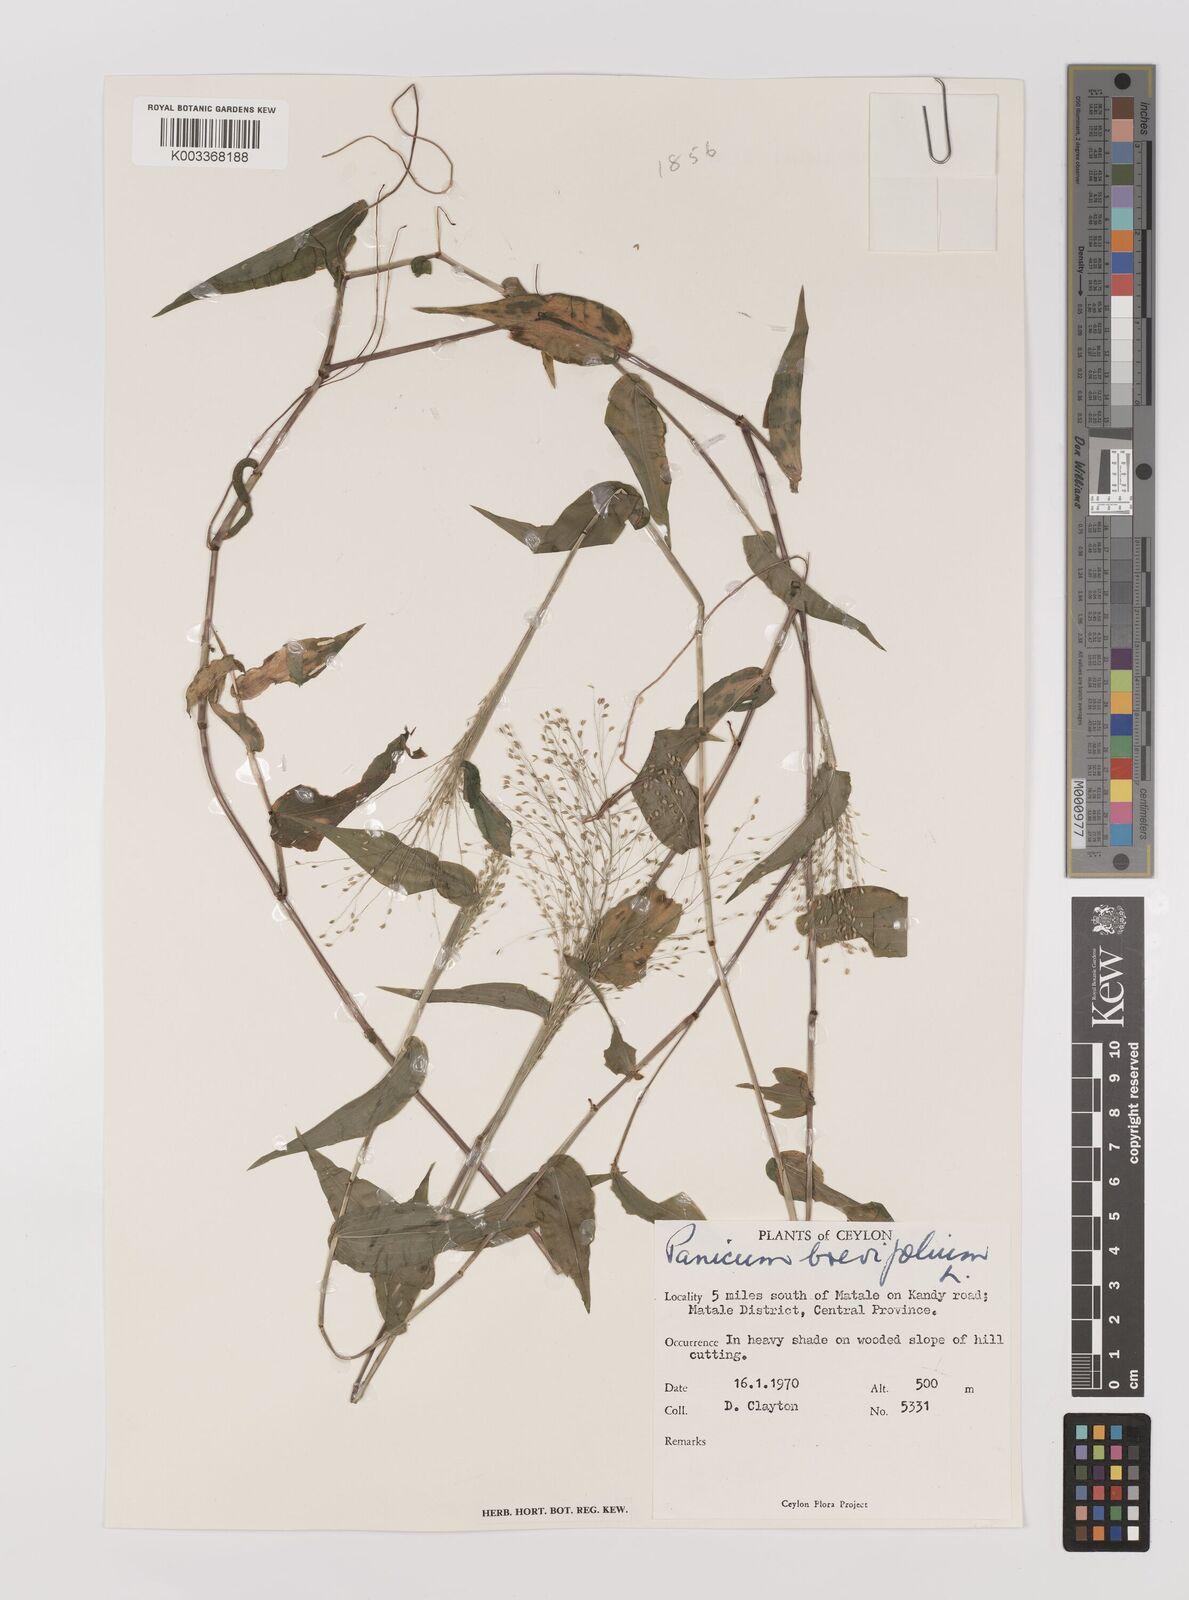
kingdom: Plantae
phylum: Tracheophyta
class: Liliopsida
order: Poales
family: Poaceae
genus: Panicum
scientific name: Panicum brevifolium
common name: Shortleaf panic grass
